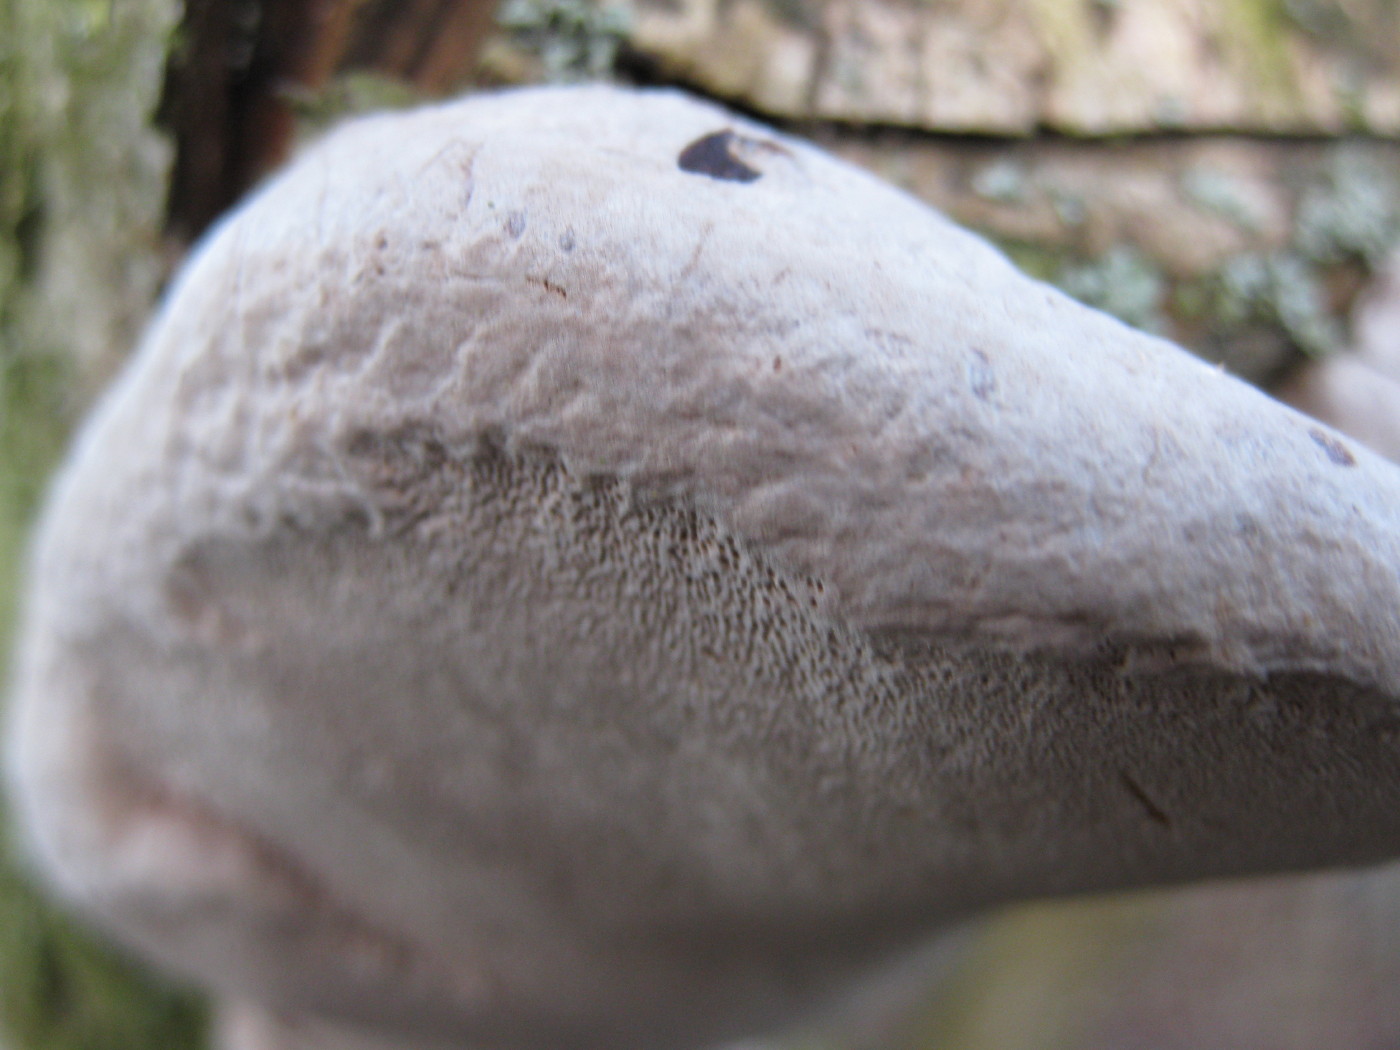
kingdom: Fungi
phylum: Basidiomycota
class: Agaricomycetes
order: Hymenochaetales
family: Hymenochaetaceae
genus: Phellinus
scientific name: Phellinus pomaceus
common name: blomme-ildporesvamp
